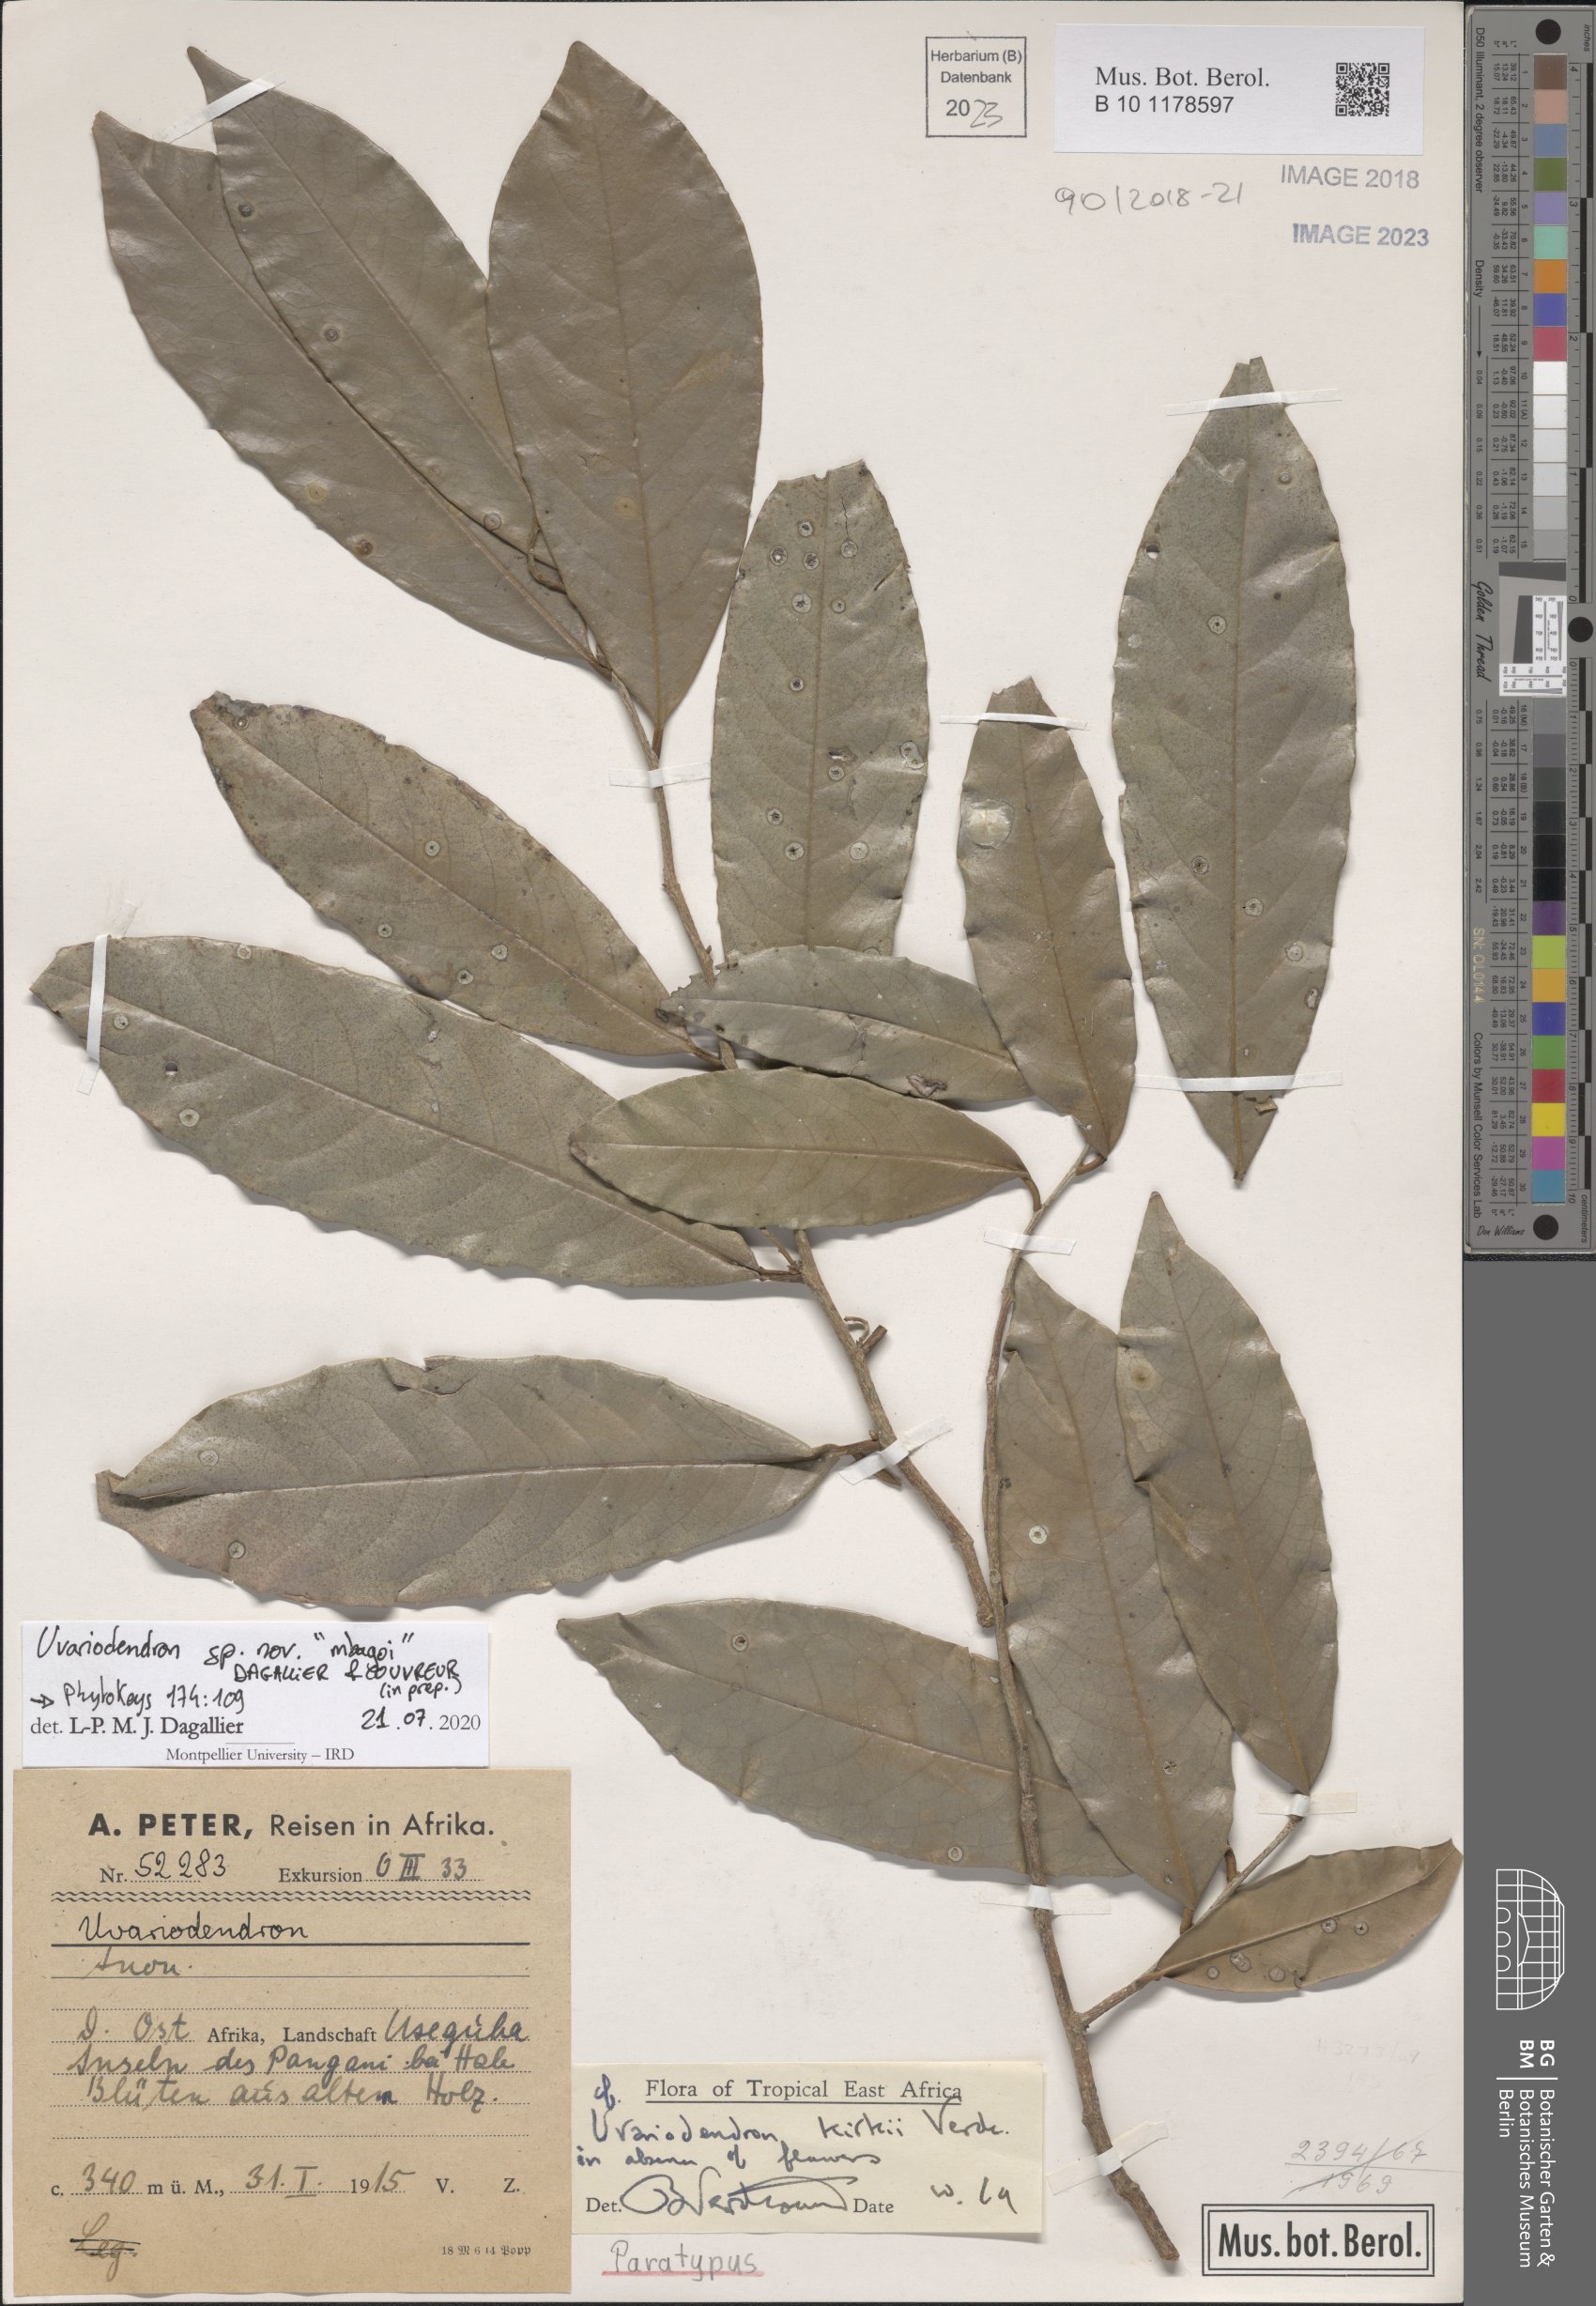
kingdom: Plantae
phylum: Tracheophyta
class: Magnoliopsida
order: Magnoliales
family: Annonaceae
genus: Uvariodendron
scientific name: Uvariodendron mbagoi
